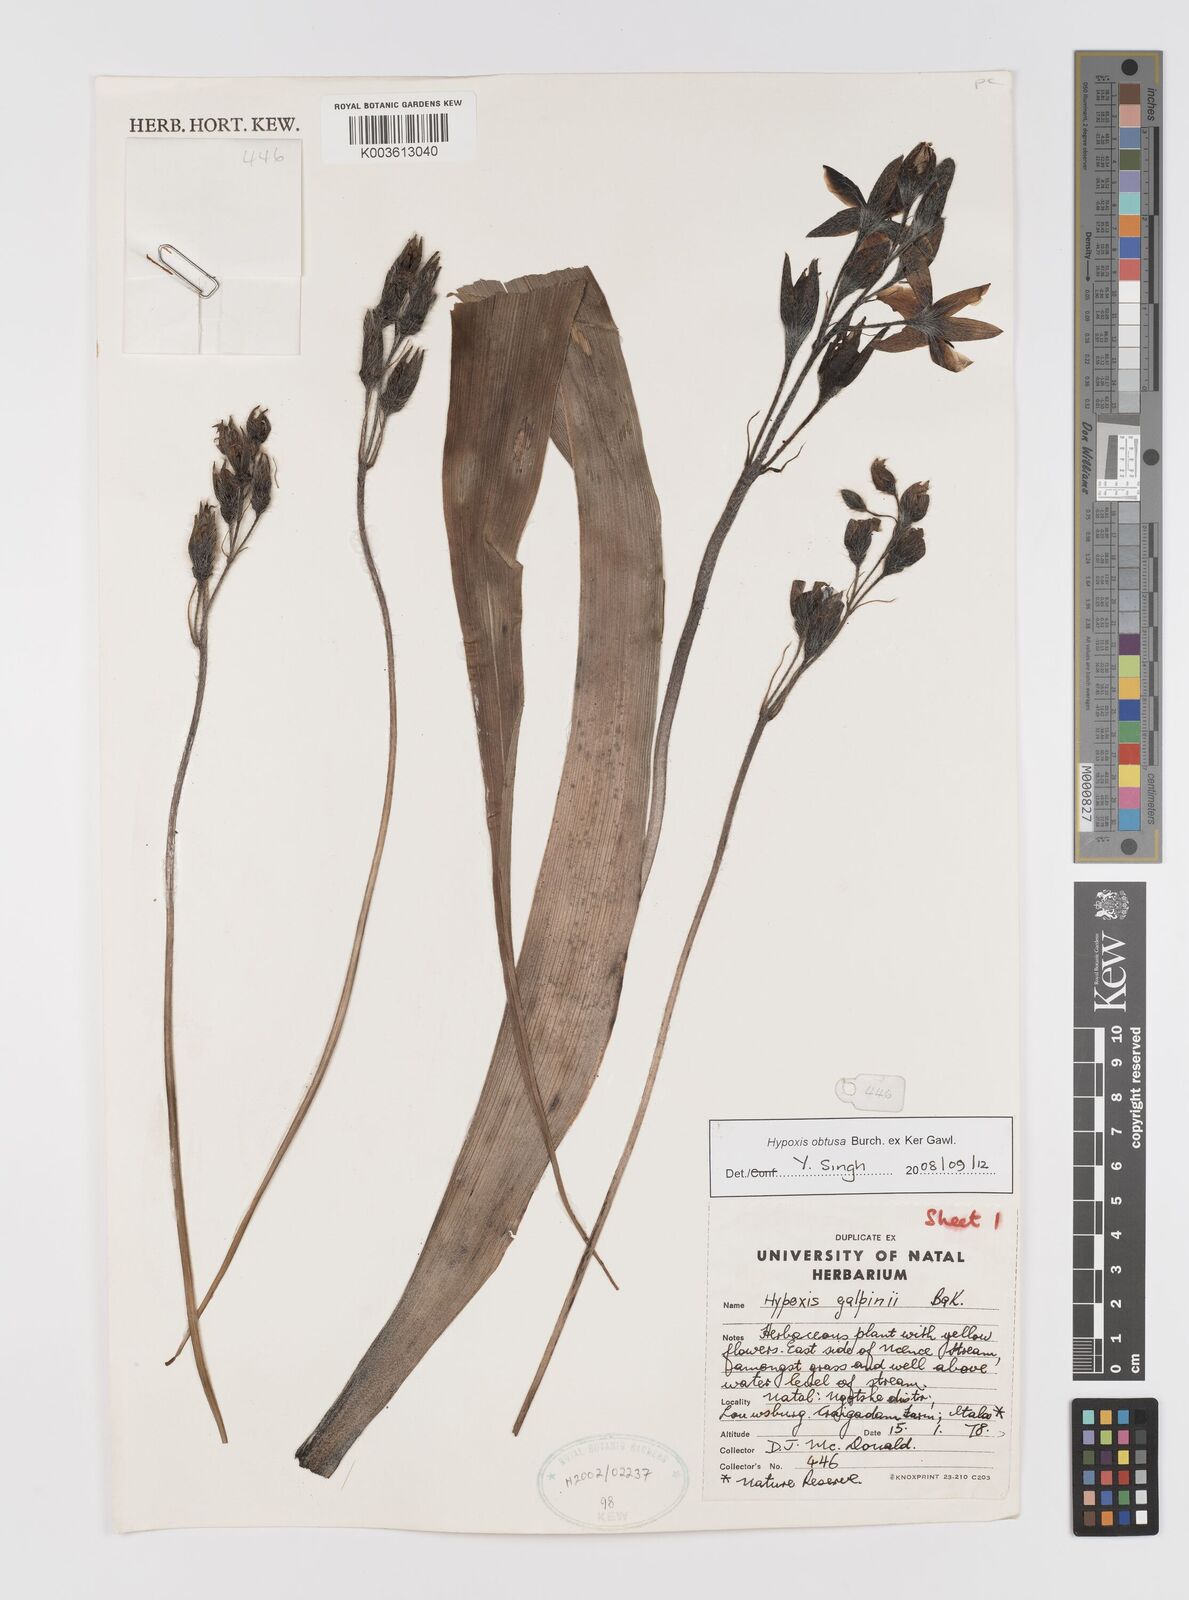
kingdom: Plantae
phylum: Tracheophyta
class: Liliopsida
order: Asparagales
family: Hypoxidaceae
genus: Hypoxis
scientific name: Hypoxis obtusa
